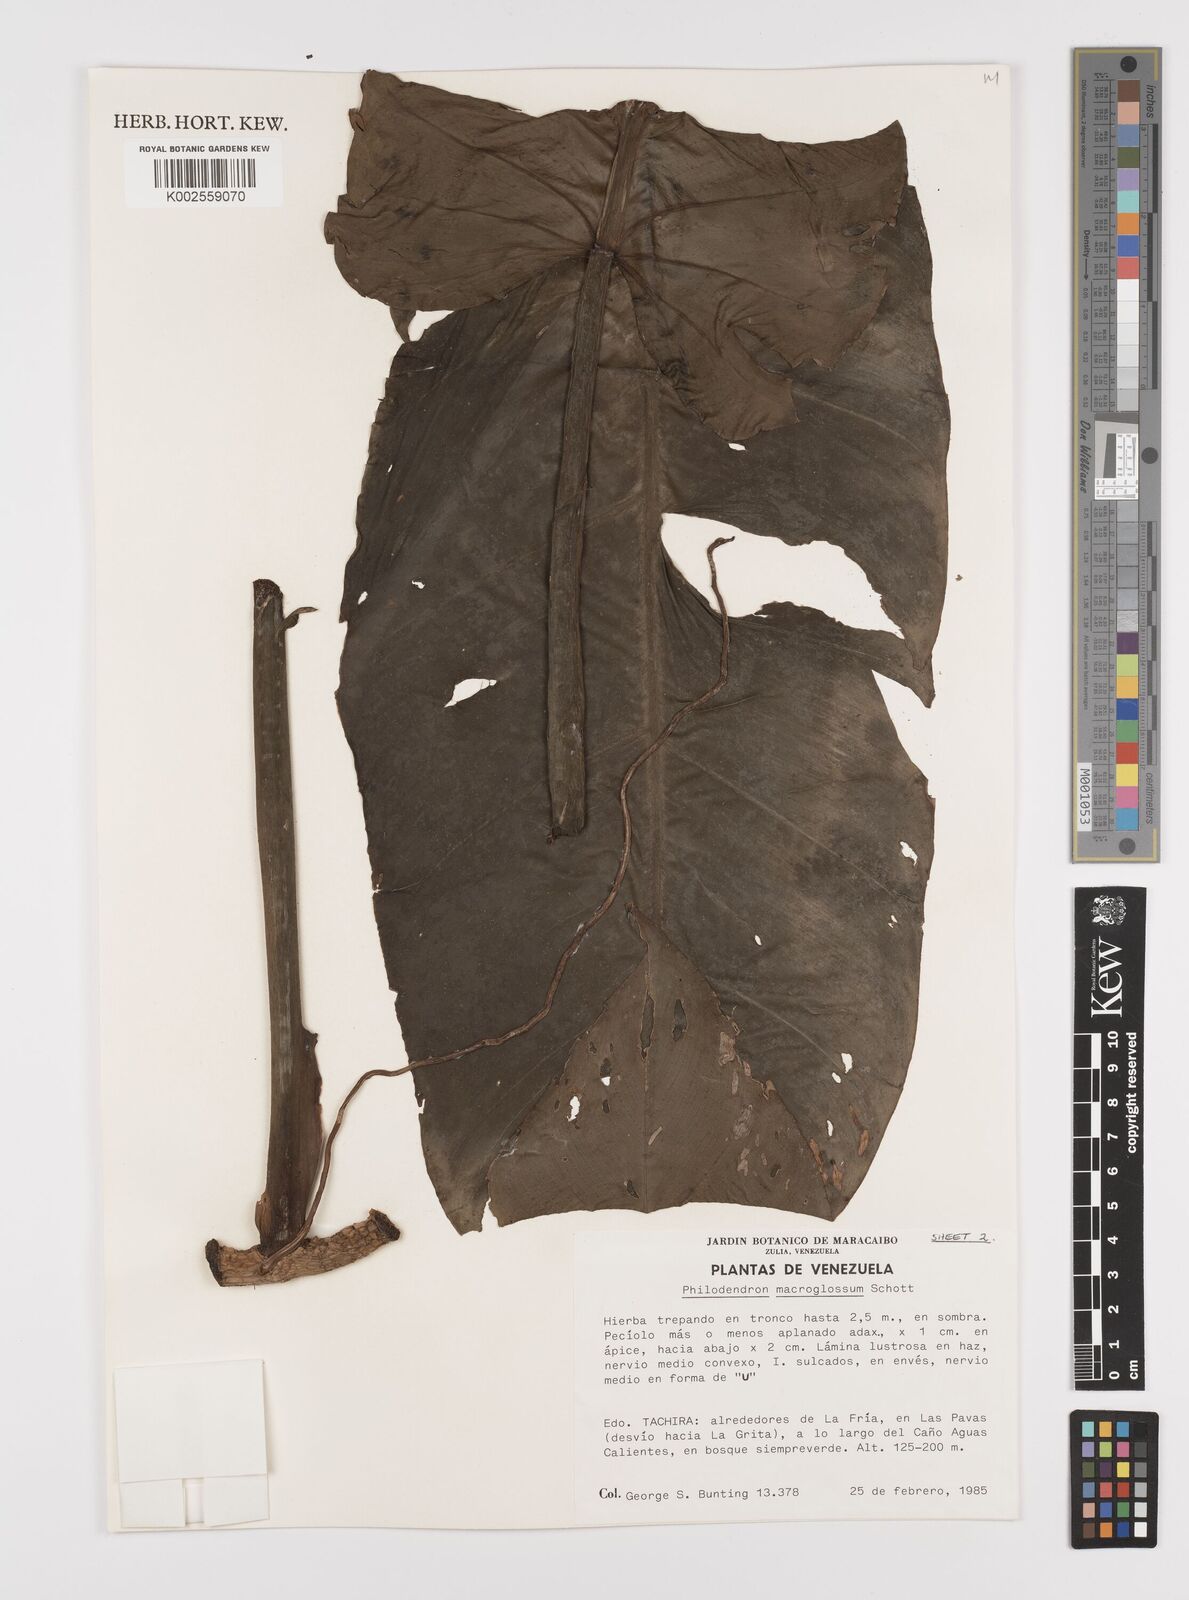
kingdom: Plantae
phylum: Tracheophyta
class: Liliopsida
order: Alismatales
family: Araceae
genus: Philodendron
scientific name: Philodendron macroglossum
